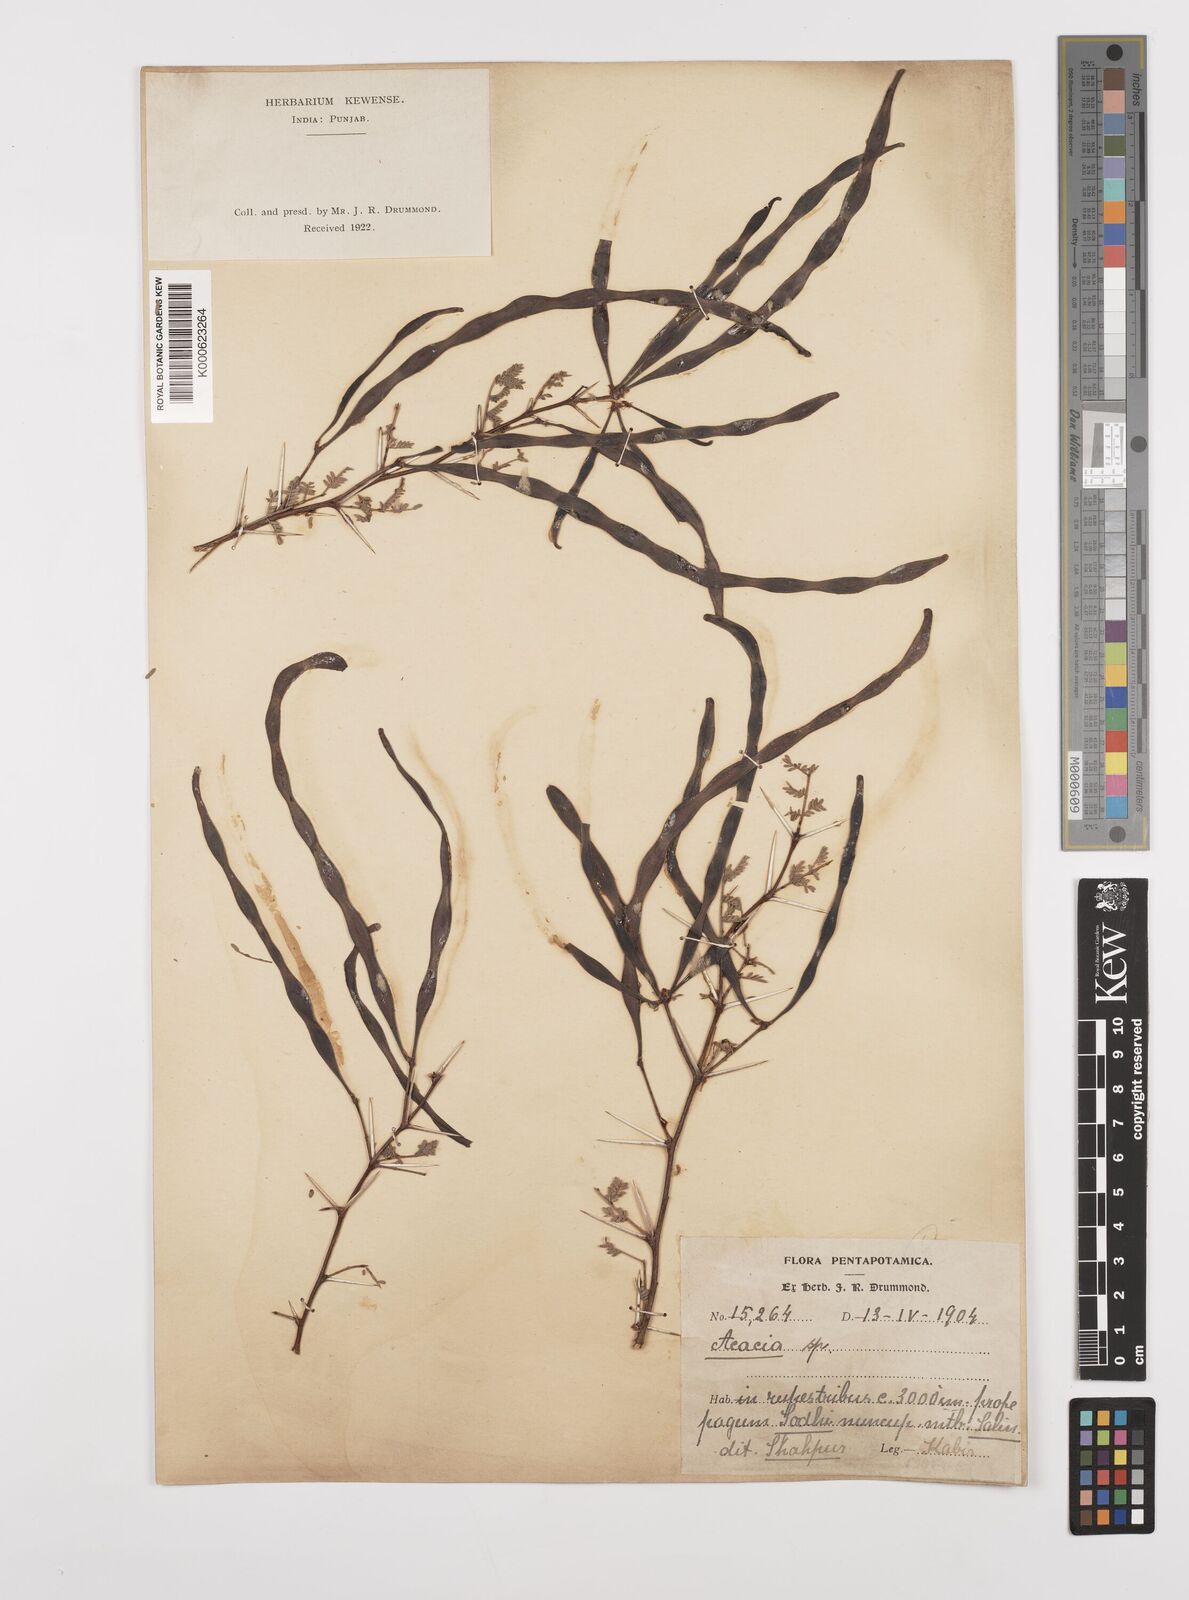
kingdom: Plantae
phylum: Tracheophyta
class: Magnoliopsida
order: Fabales
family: Fabaceae
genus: Vachellia
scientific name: Vachellia hydaspica
